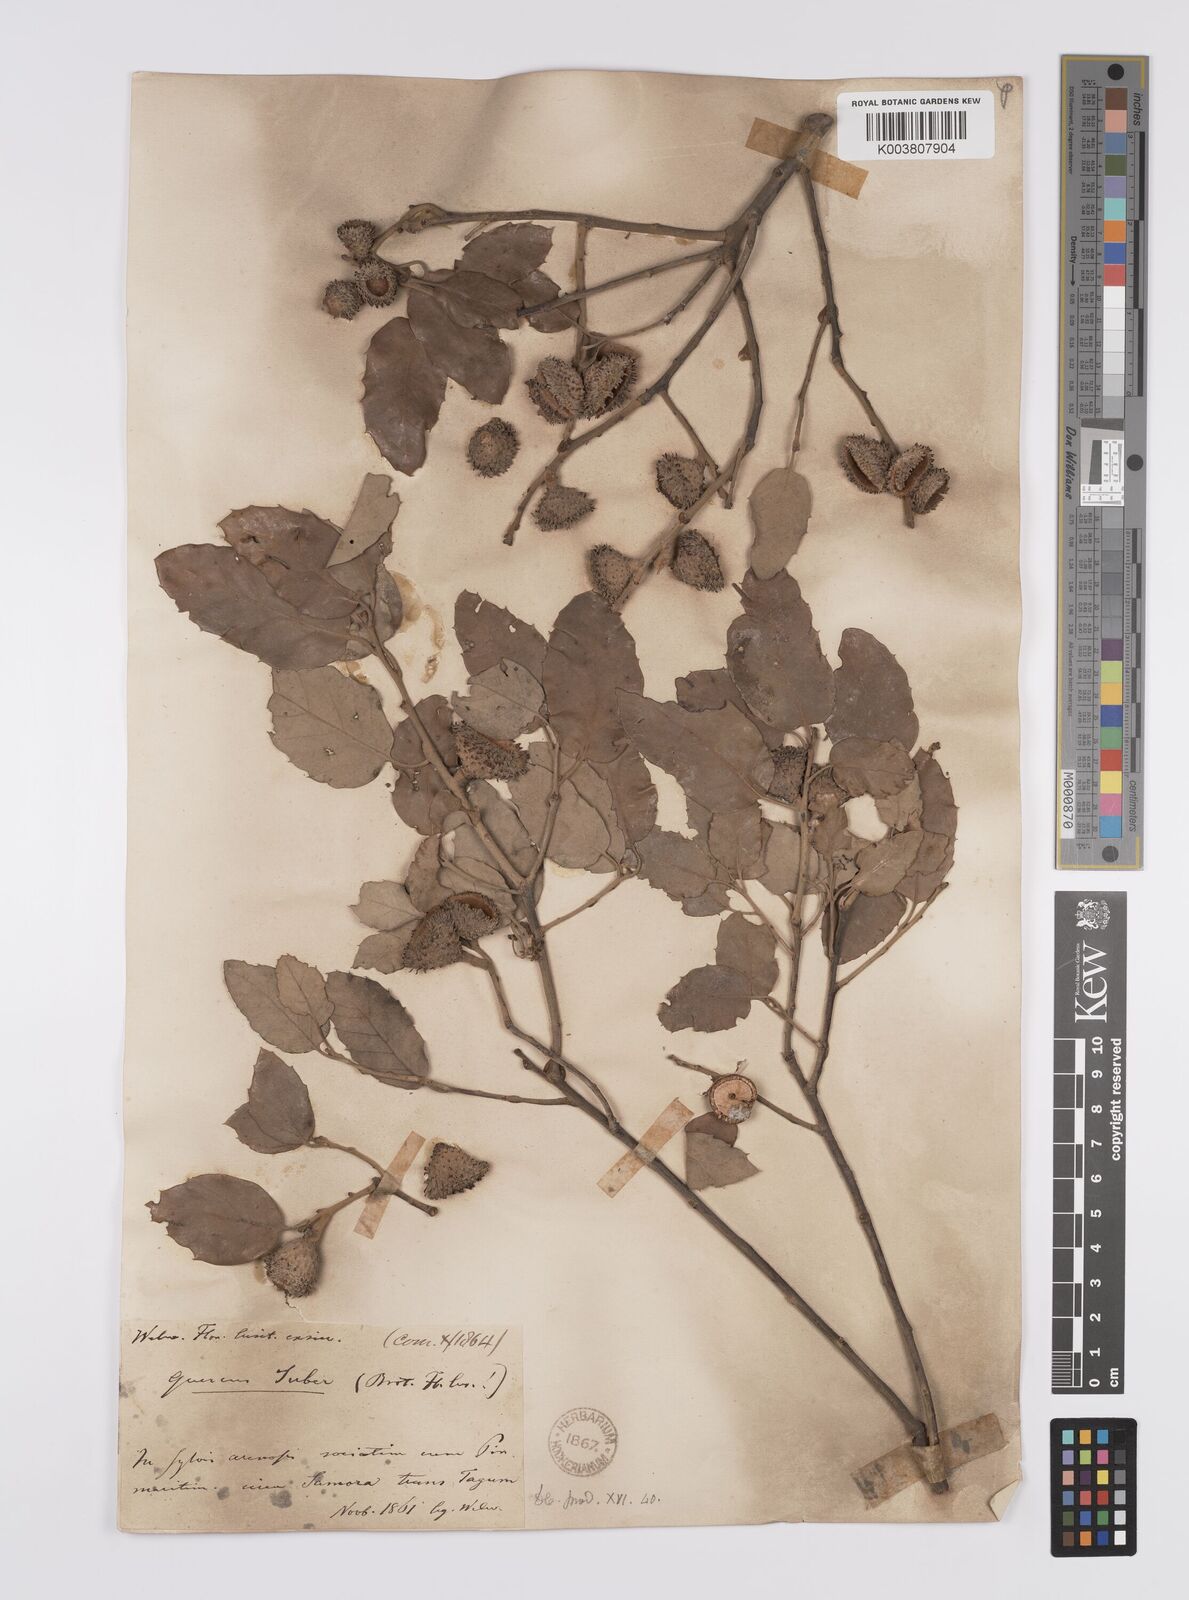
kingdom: Plantae
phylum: Tracheophyta
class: Magnoliopsida
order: Fagales
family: Fagaceae
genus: Quercus
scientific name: Quercus suber
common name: Cork oak
